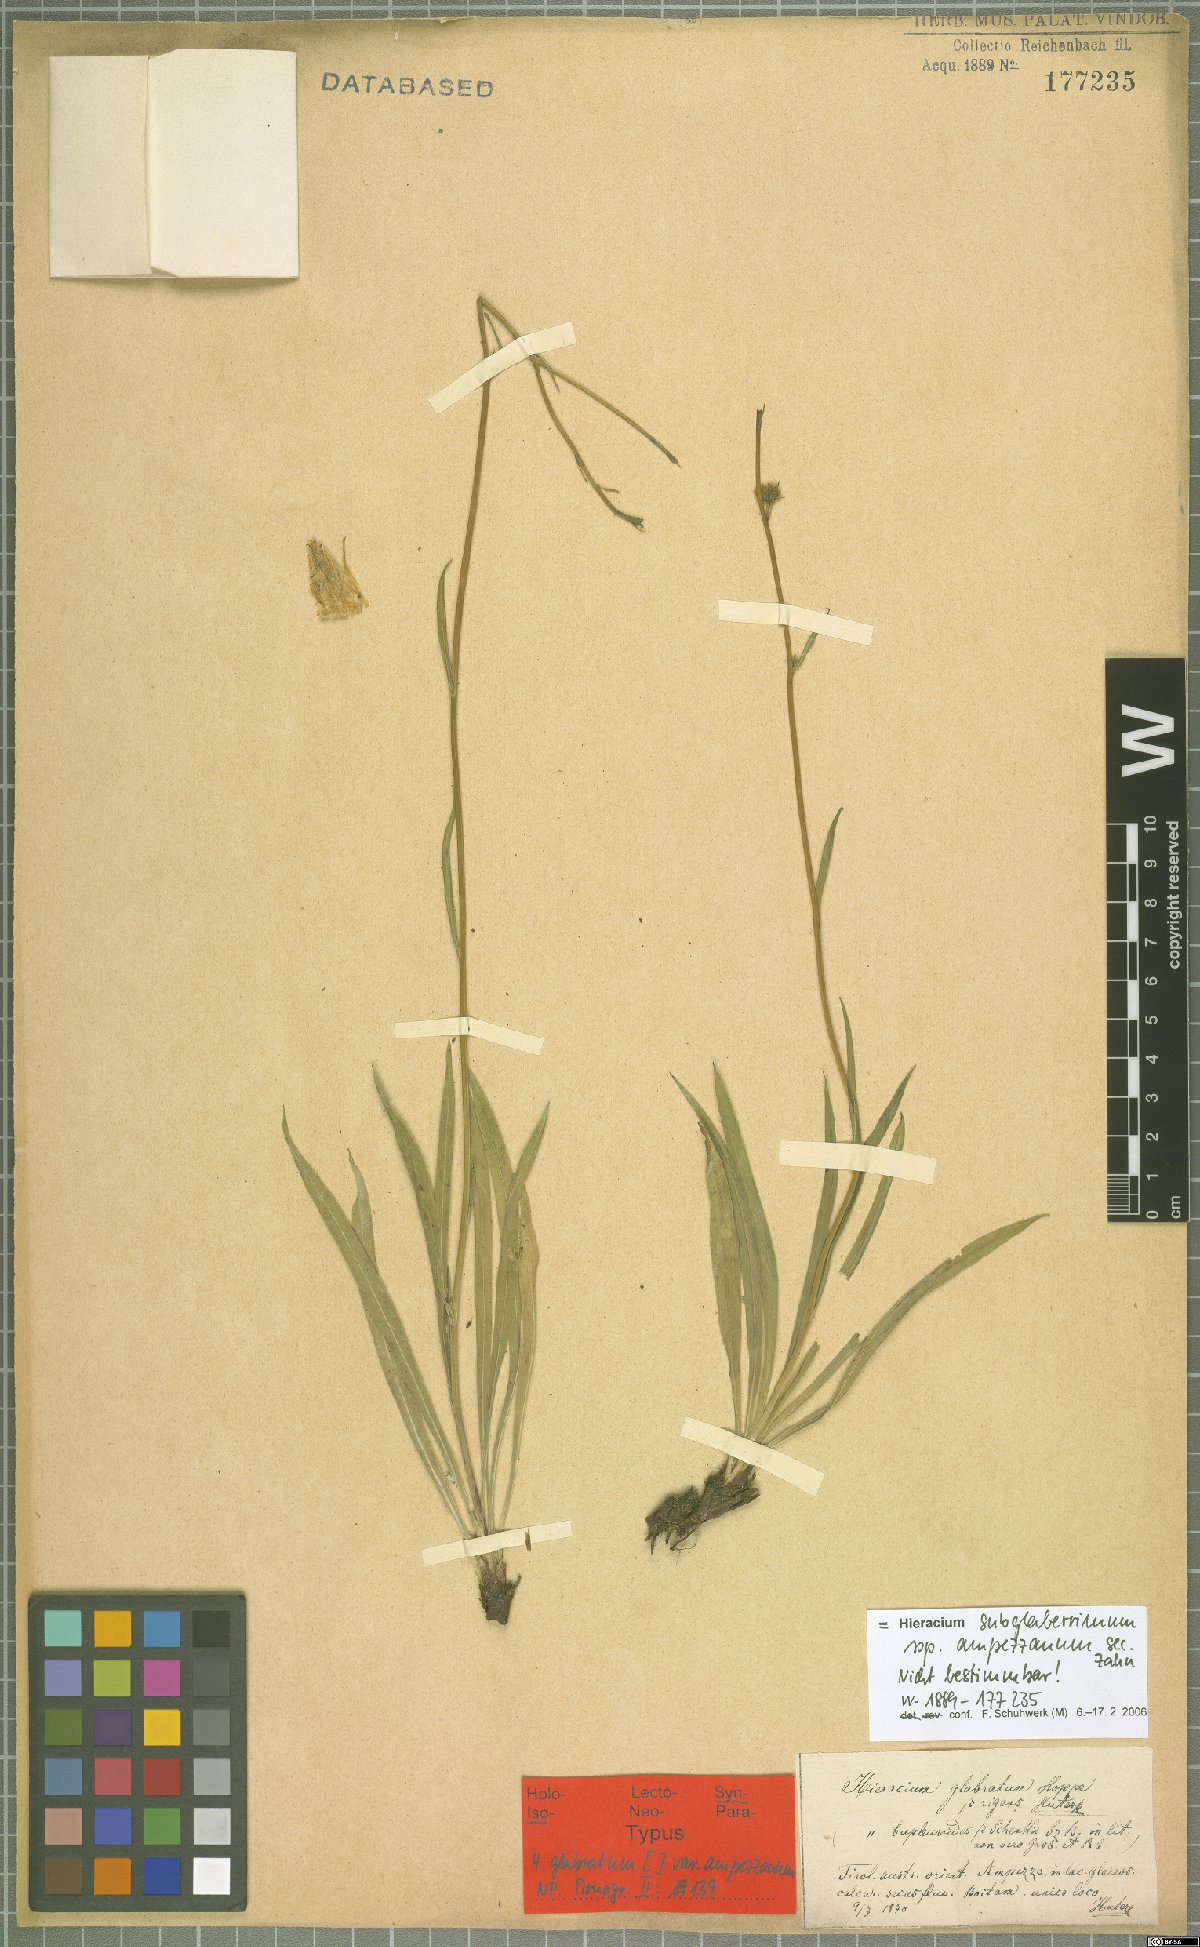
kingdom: Plantae
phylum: Tracheophyta
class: Magnoliopsida
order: Asterales
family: Asteraceae
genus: Hieracium
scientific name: Hieracium sparsiramum
